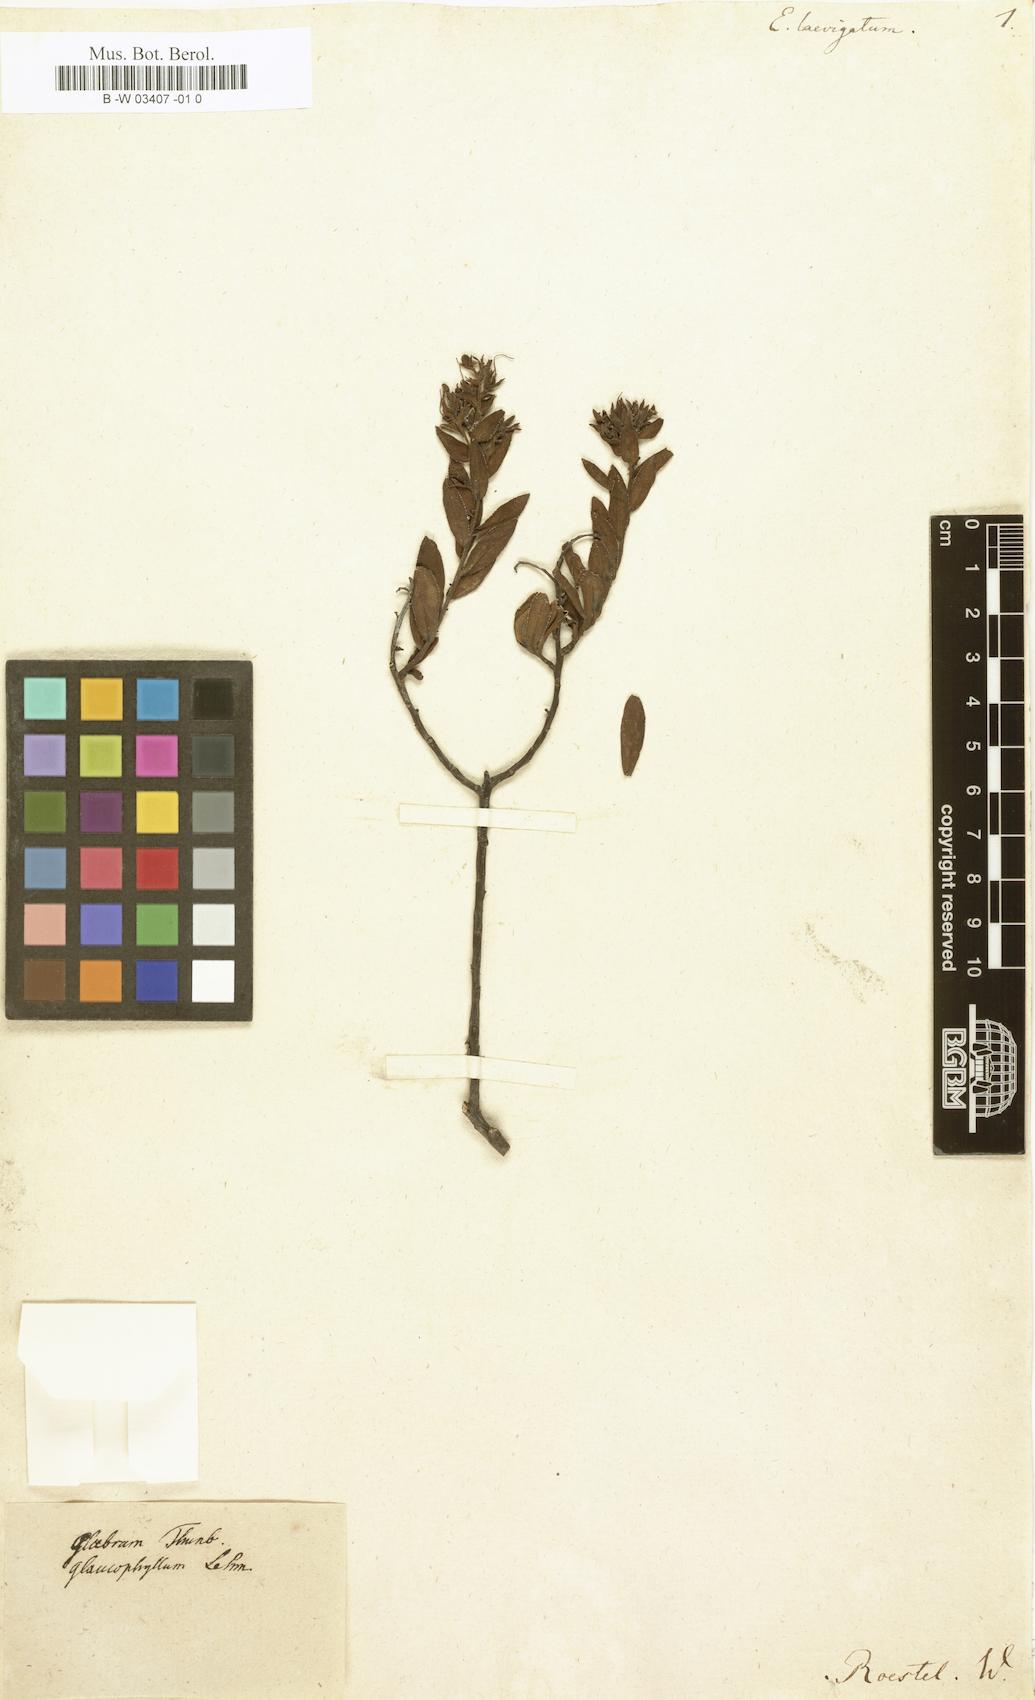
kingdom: Plantae
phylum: Tracheophyta
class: Magnoliopsida
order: Boraginales
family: Boraginaceae
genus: Lobostemon
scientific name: Lobostemon laevigatus
